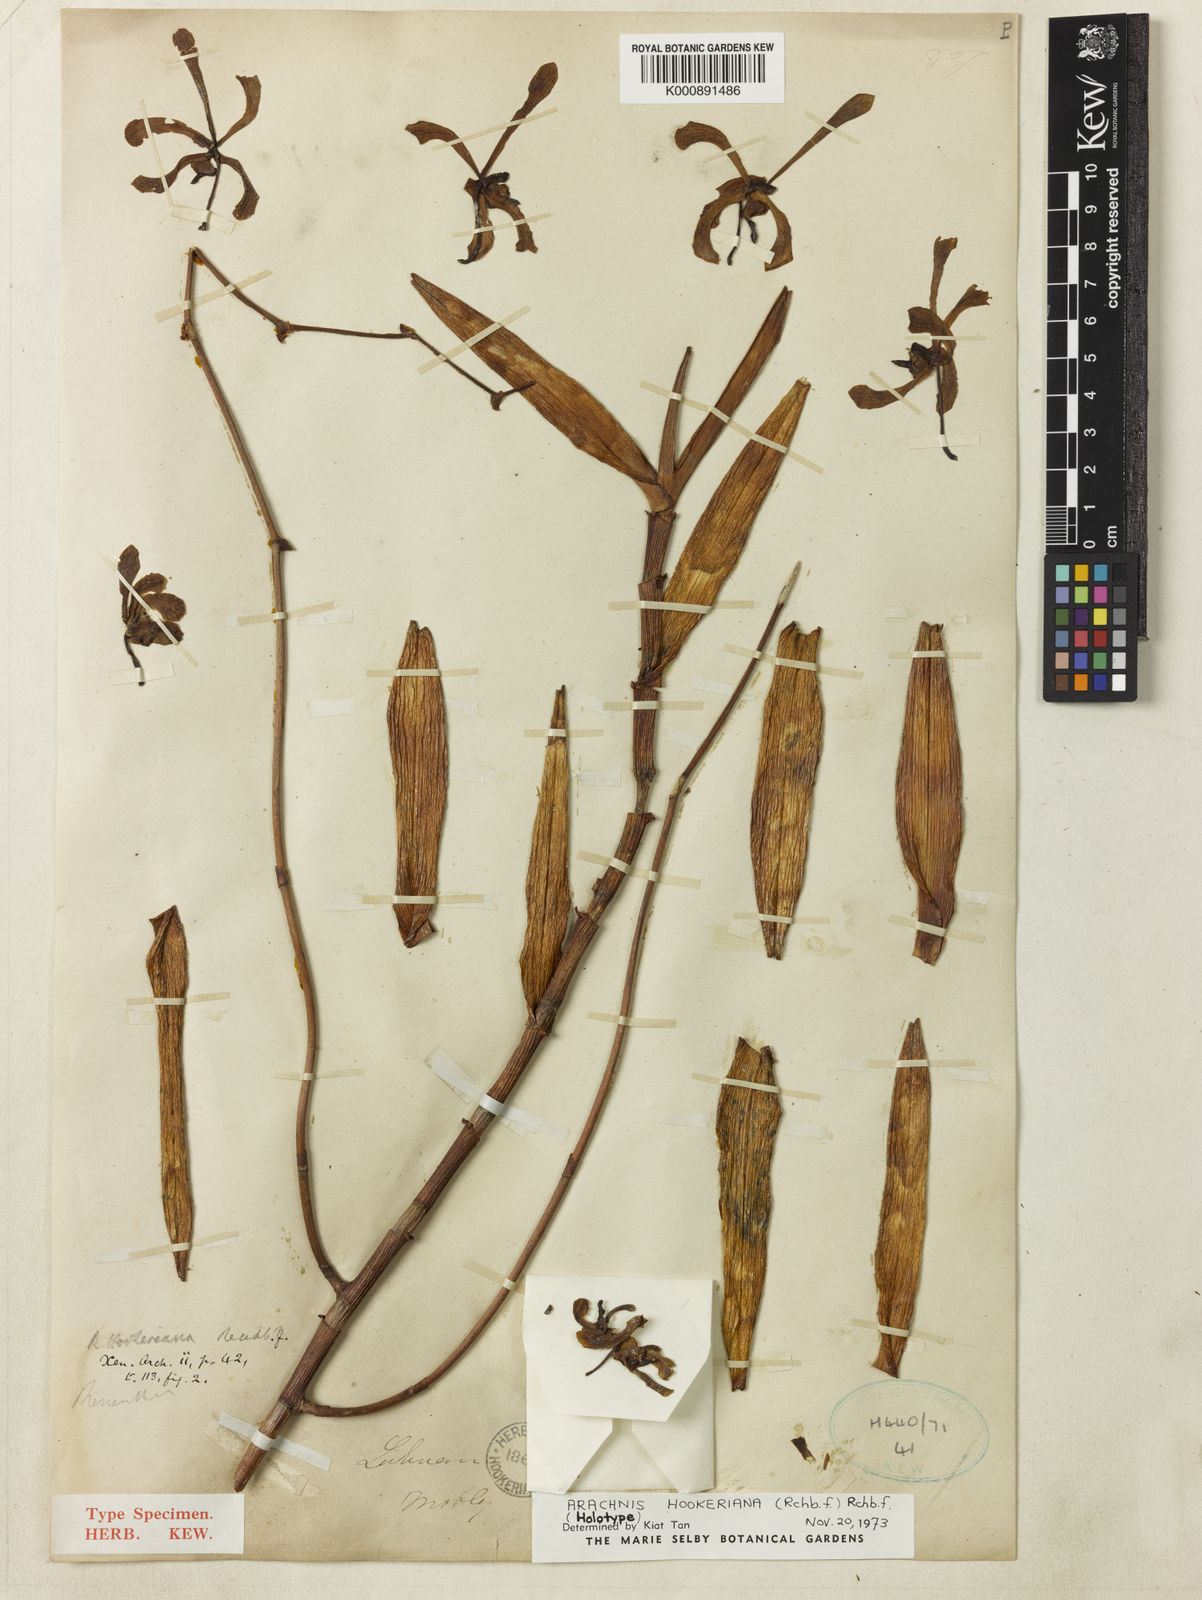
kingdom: Plantae
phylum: Tracheophyta
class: Liliopsida
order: Asparagales
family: Orchidaceae
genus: Arachnis
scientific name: Arachnis hookeriana
